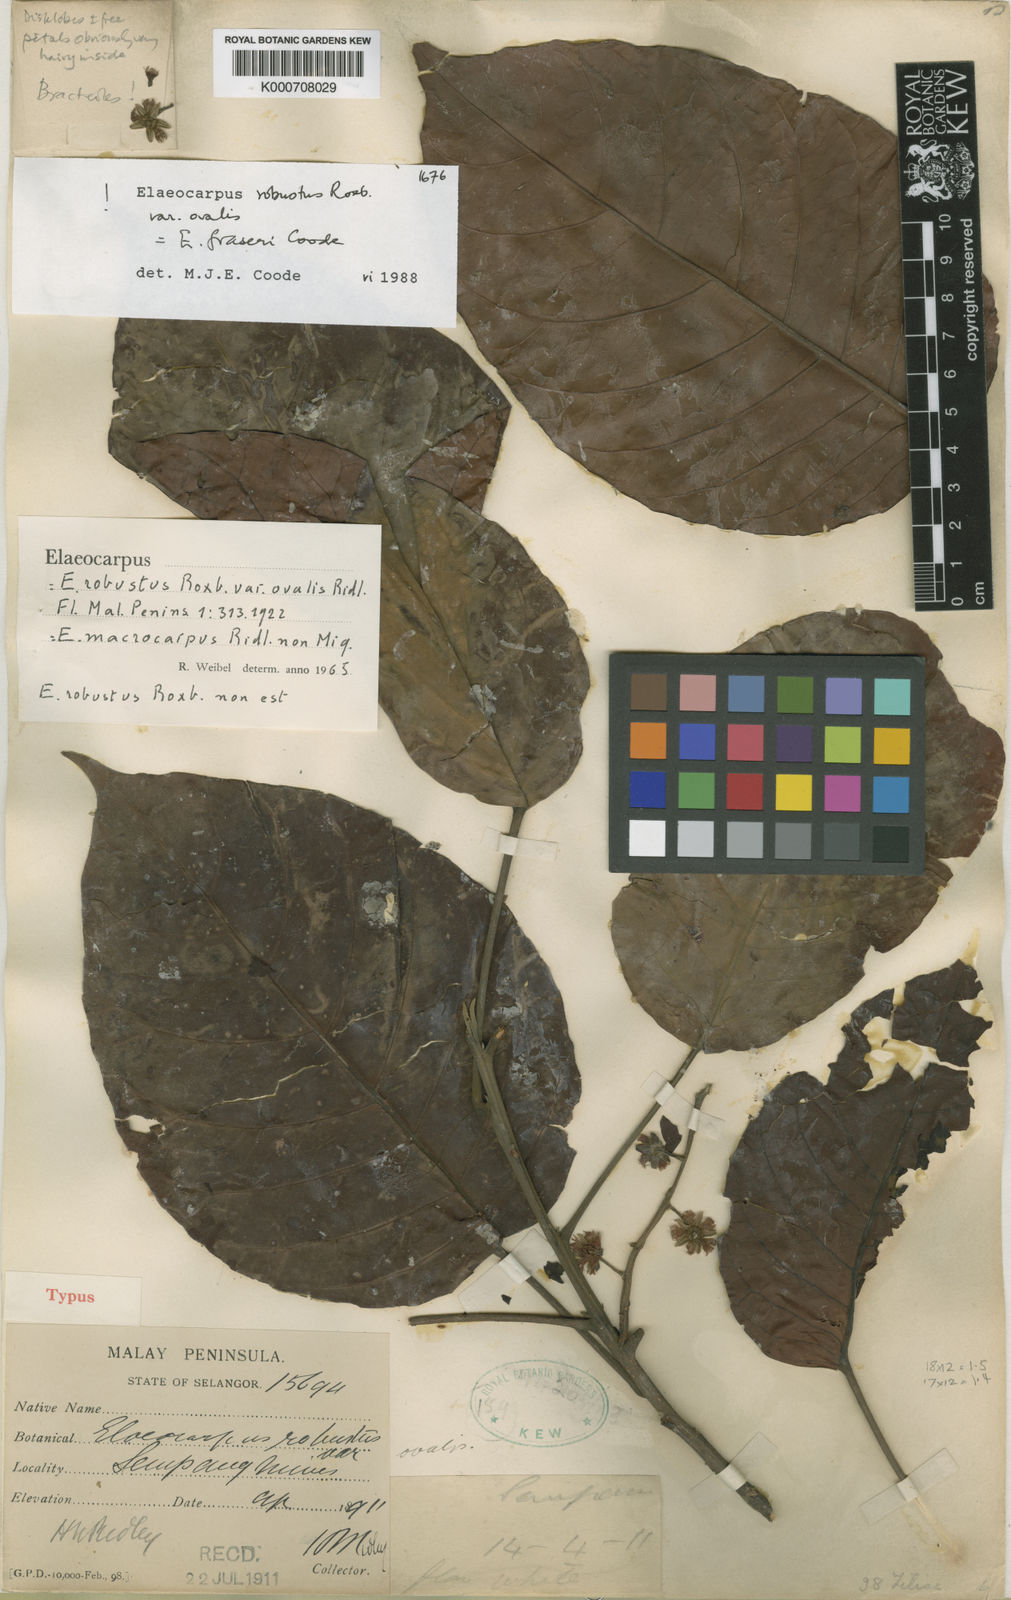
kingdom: Plantae
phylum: Tracheophyta
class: Magnoliopsida
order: Oxalidales
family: Elaeocarpaceae
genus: Elaeocarpus
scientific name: Elaeocarpus fraseri
